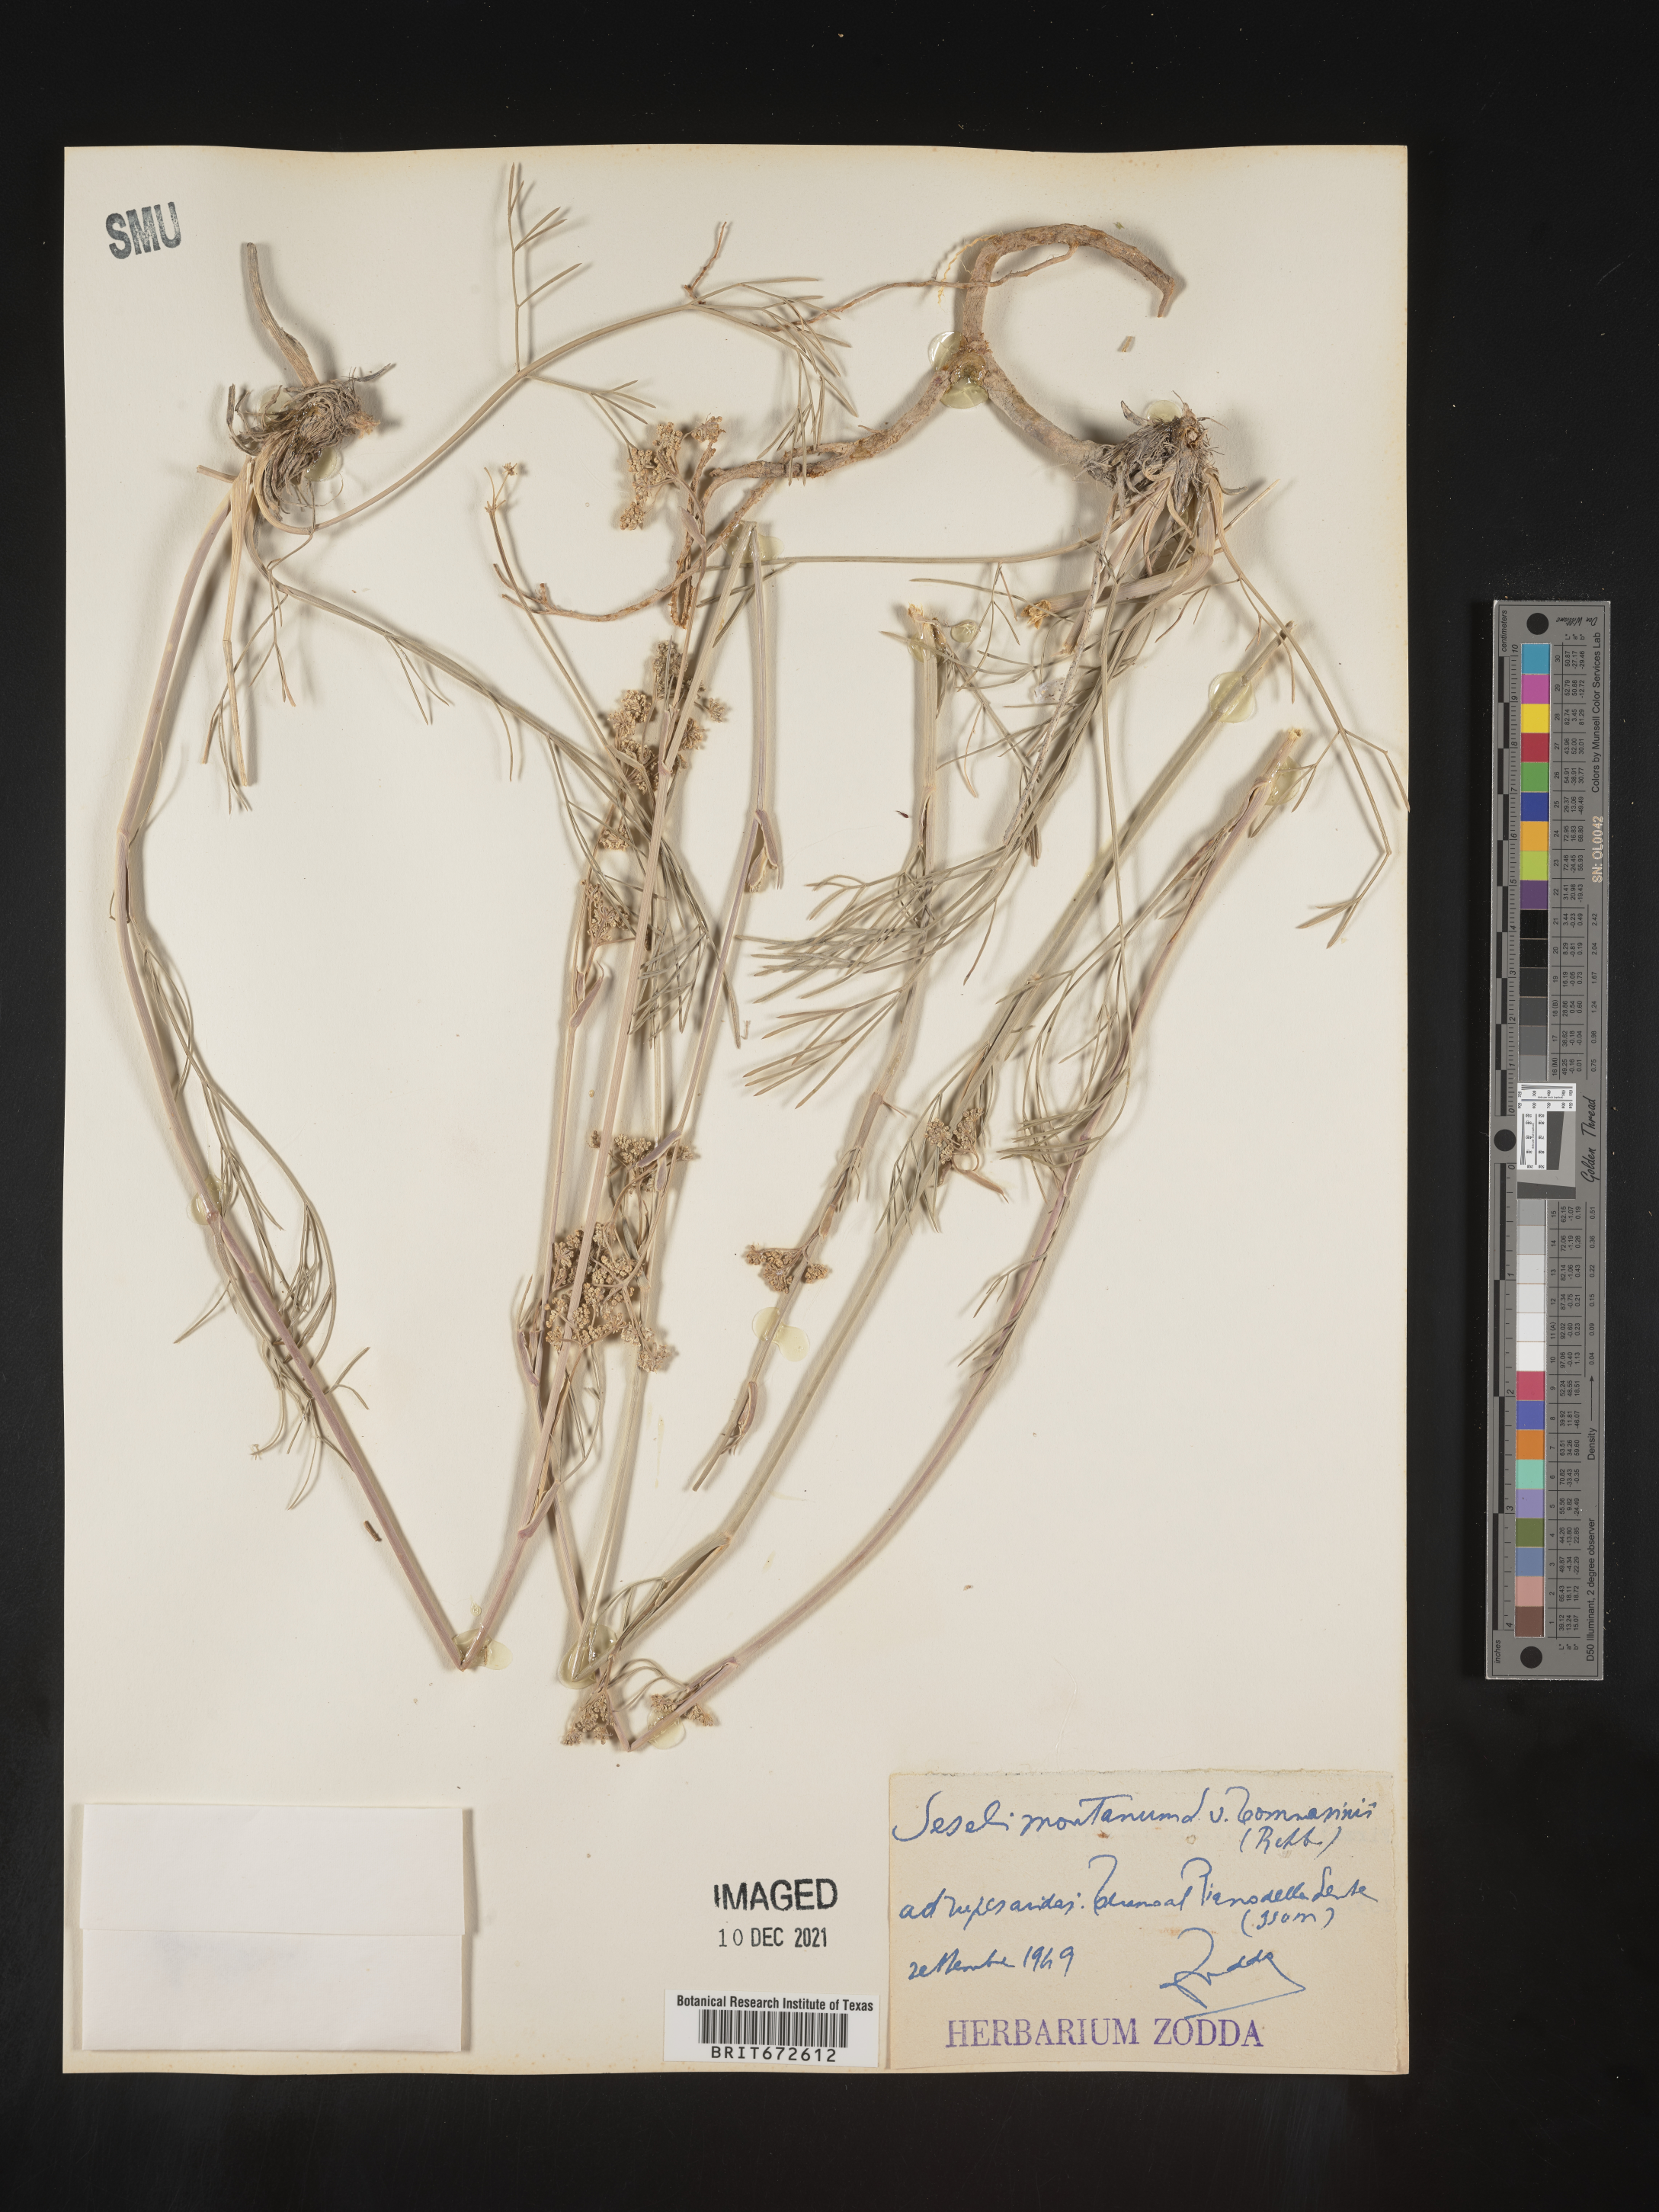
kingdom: Plantae
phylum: Tracheophyta
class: Magnoliopsida
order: Apiales
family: Apiaceae
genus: Seseli
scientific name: Seseli
